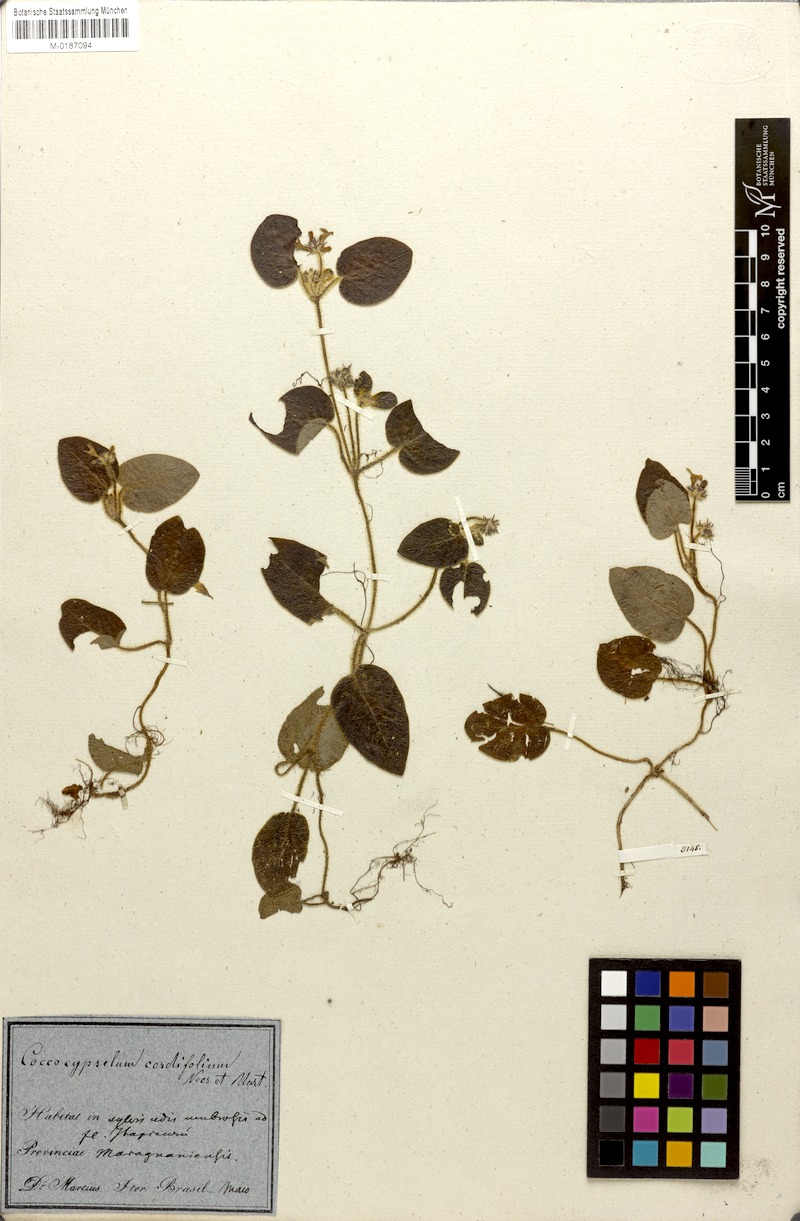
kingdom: Plantae
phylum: Tracheophyta
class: Magnoliopsida
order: Gentianales
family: Rubiaceae
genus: Coccocypselum
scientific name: Coccocypselum cordifolium
